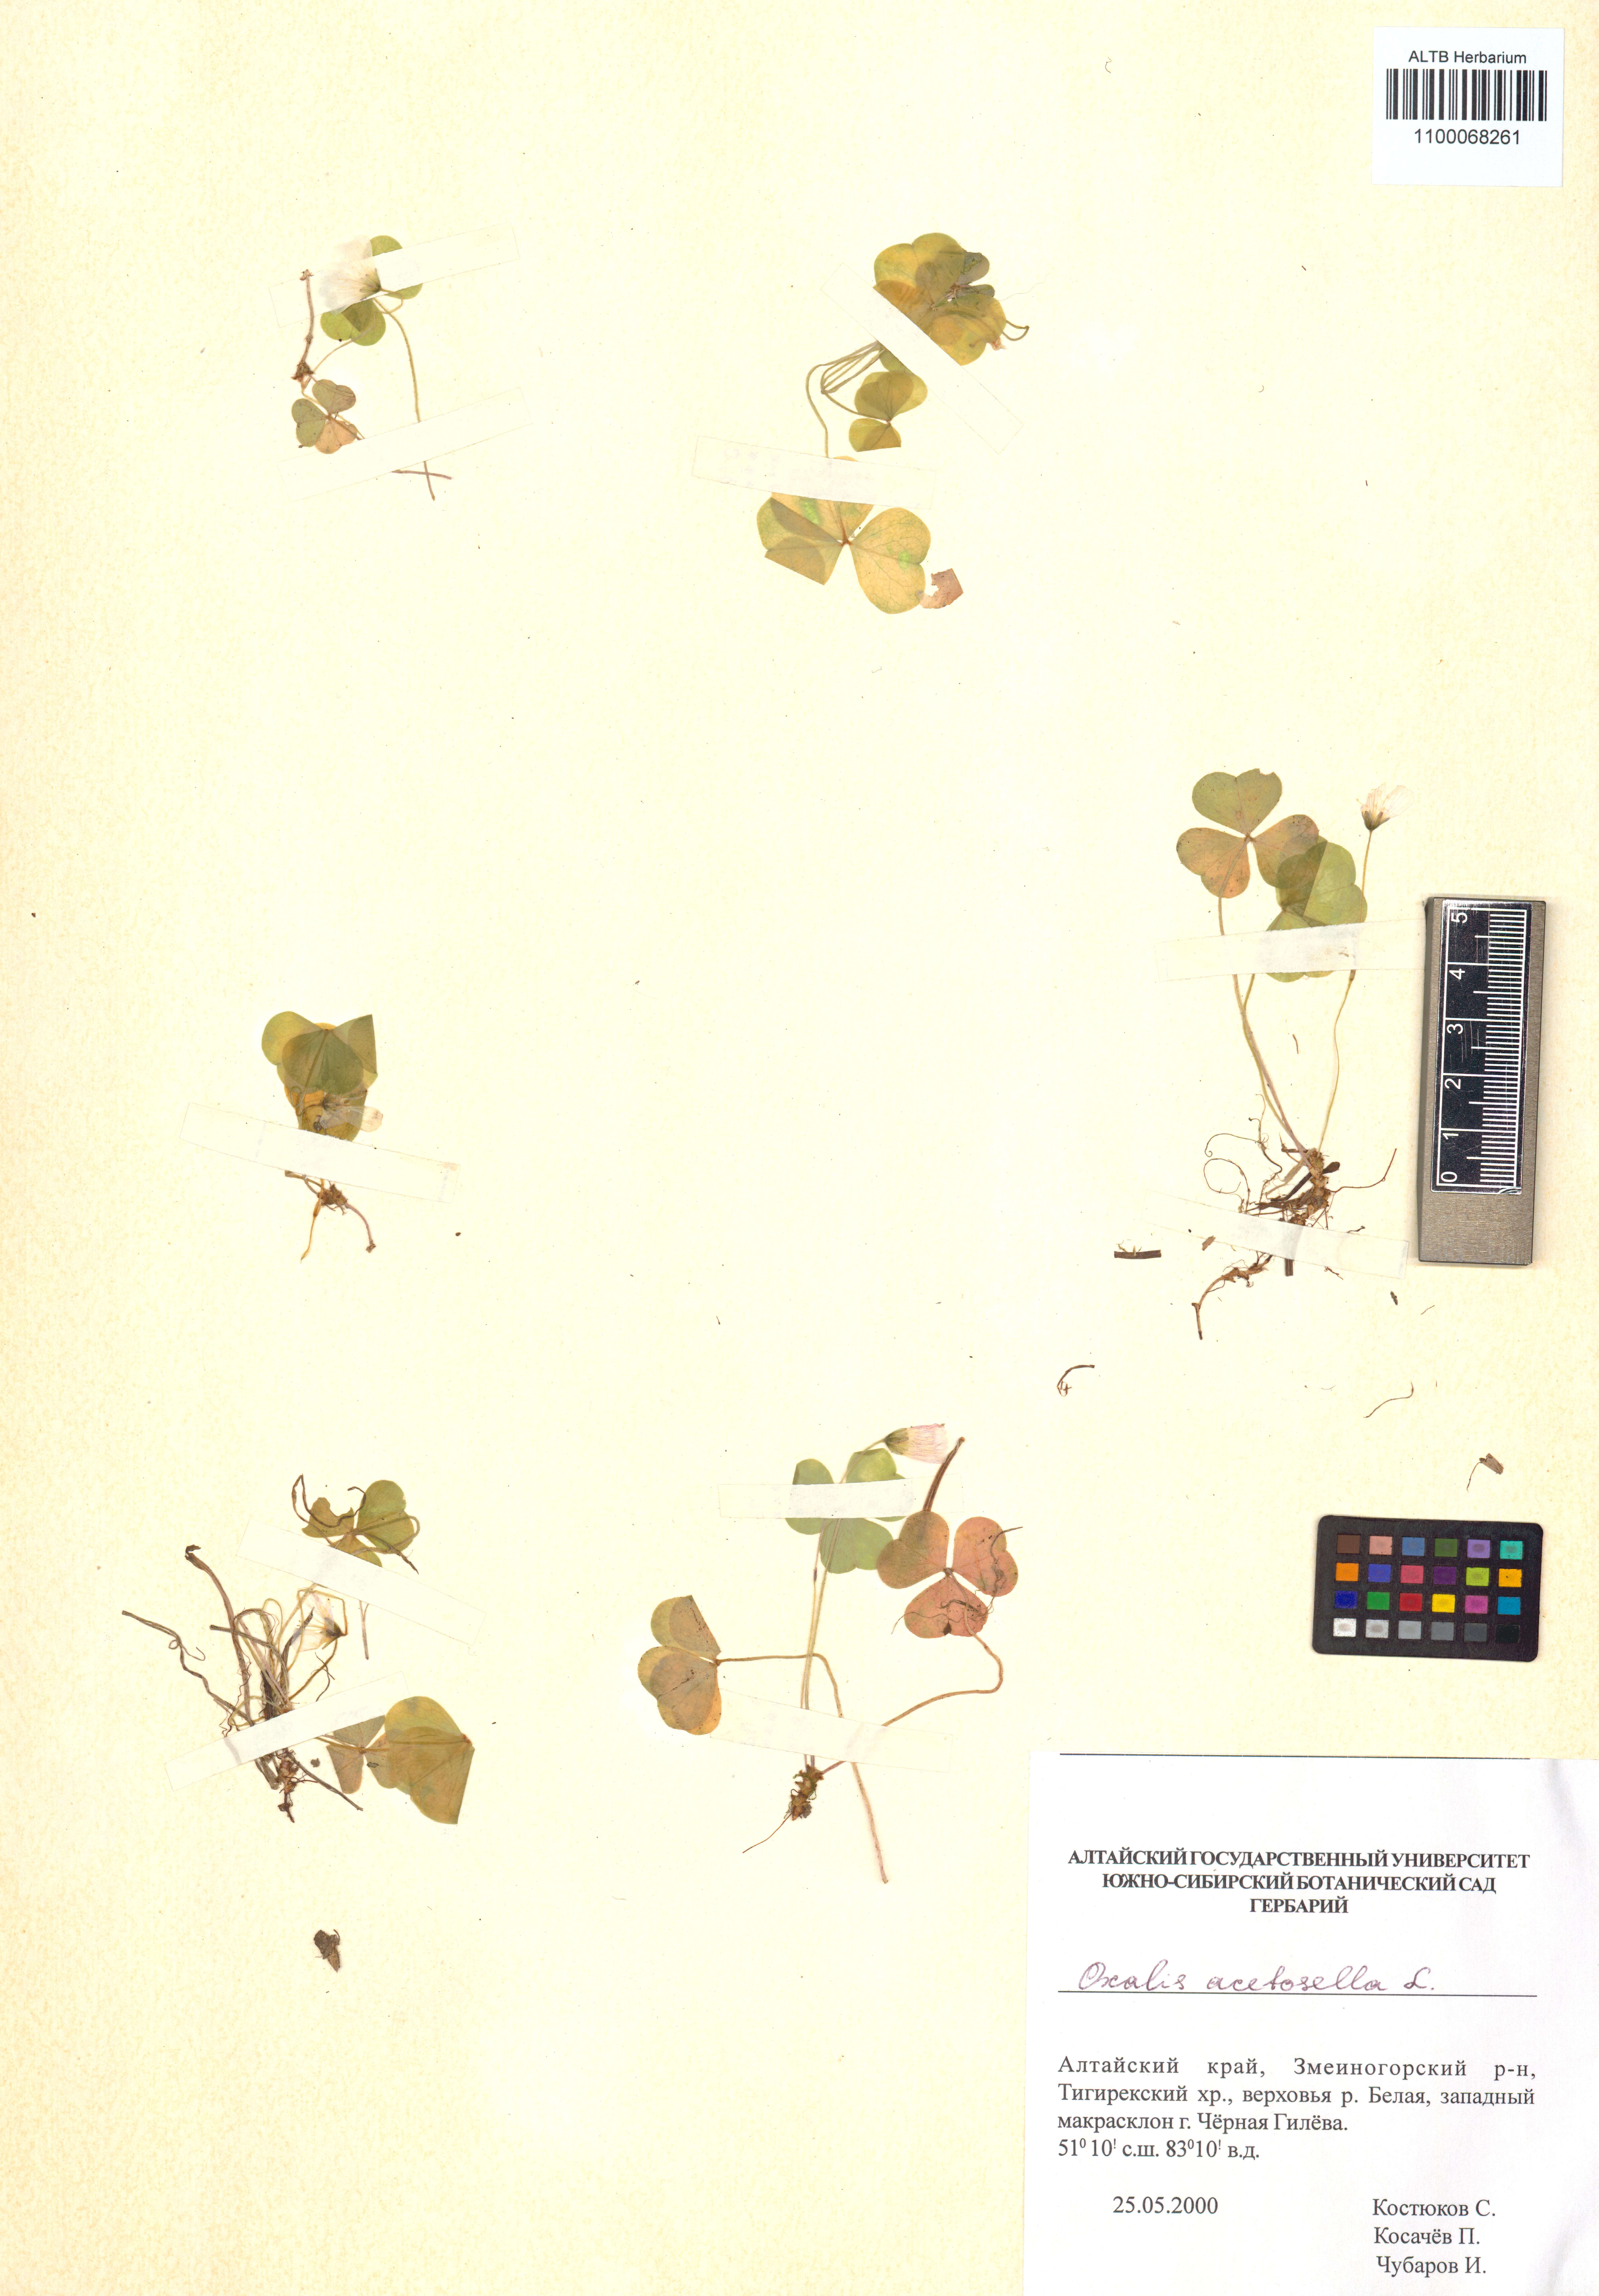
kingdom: Plantae
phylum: Tracheophyta
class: Magnoliopsida
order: Oxalidales
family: Oxalidaceae
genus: Oxalis
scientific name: Oxalis acetosella
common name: Wood-sorrel
